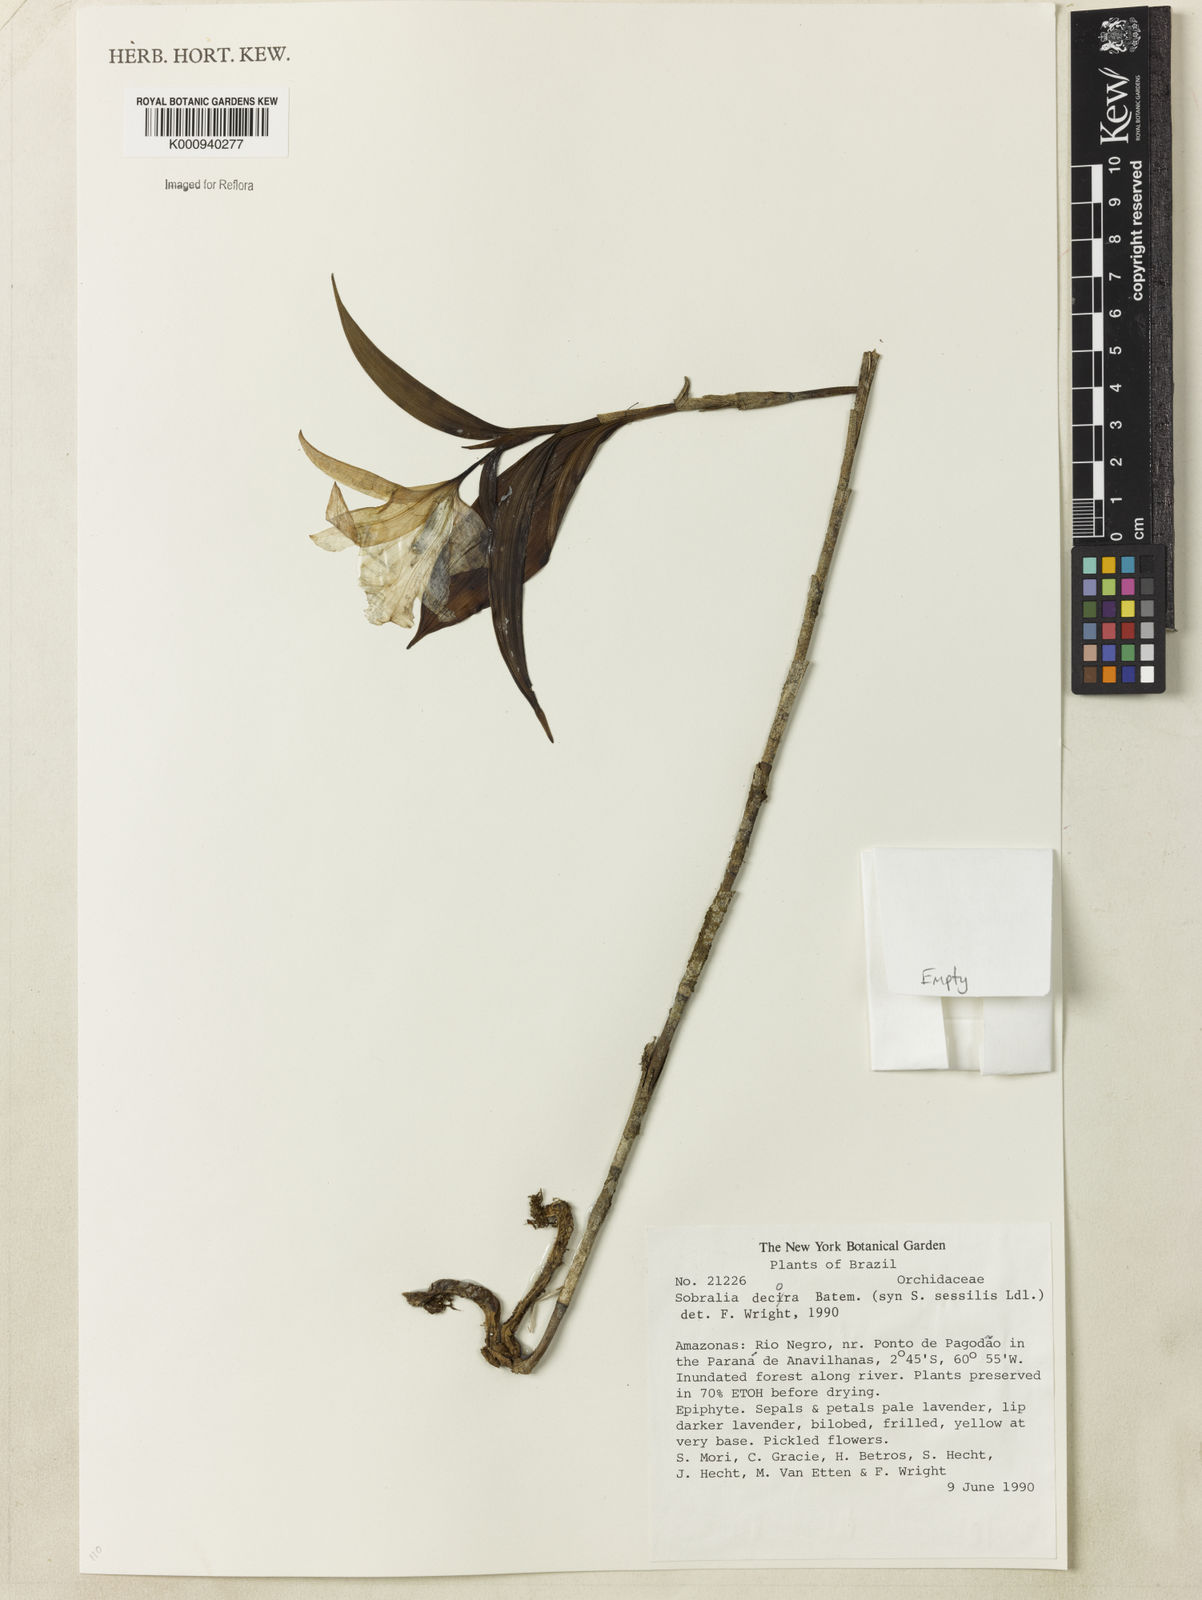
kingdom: Plantae
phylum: Tracheophyta
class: Liliopsida
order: Asparagales
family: Orchidaceae
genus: Sobralia
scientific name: Sobralia decora
